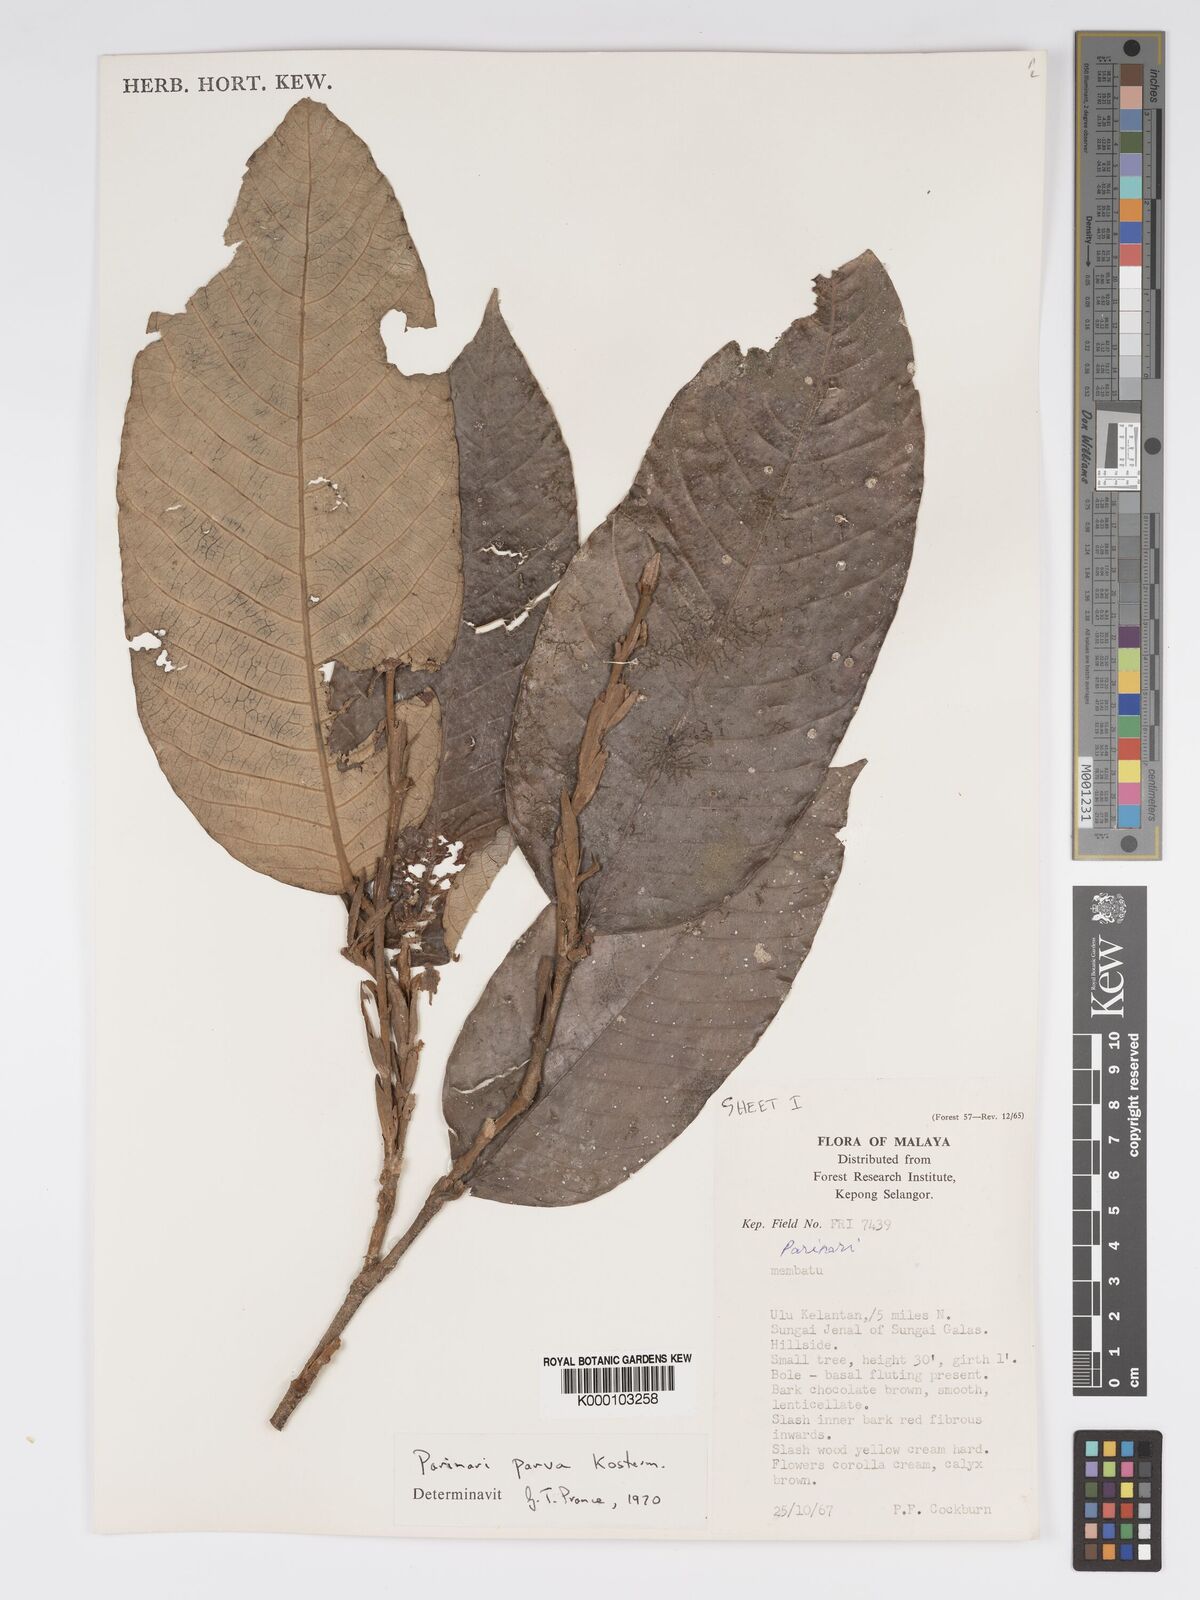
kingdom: Plantae
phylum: Tracheophyta
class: Magnoliopsida
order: Malpighiales
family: Chrysobalanaceae
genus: Parinari
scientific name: Parinari parva
